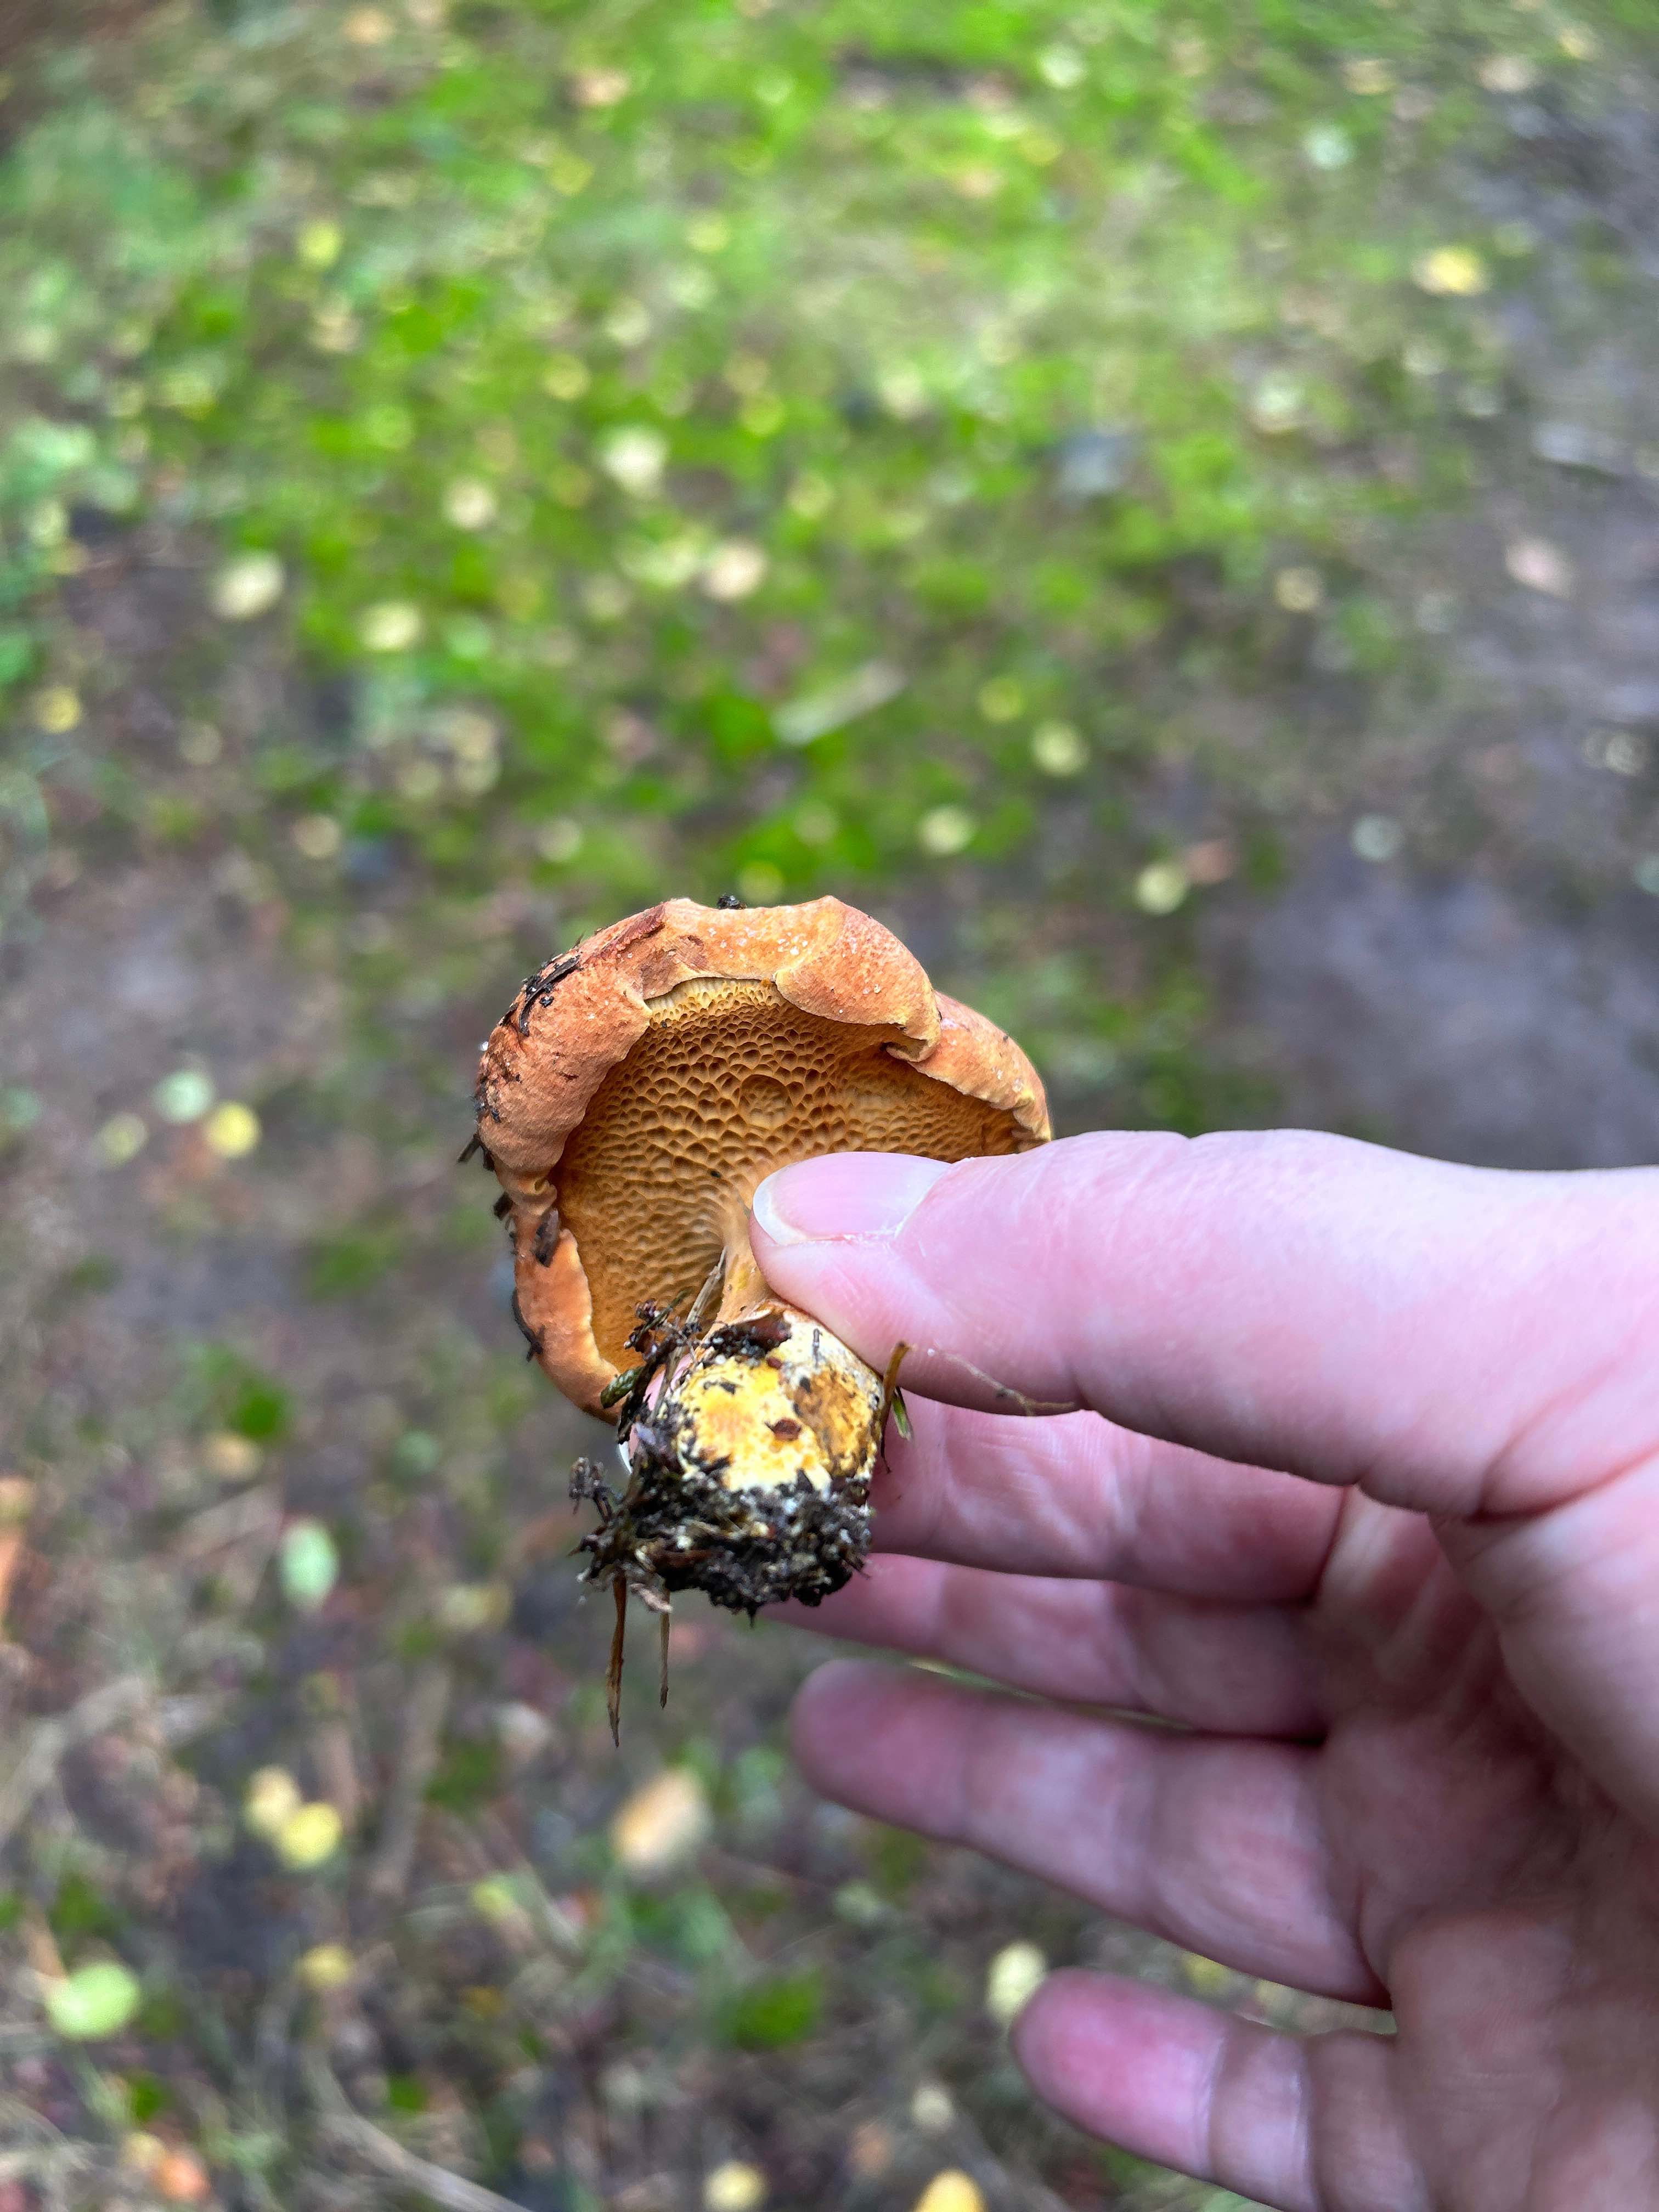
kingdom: Fungi
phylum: Basidiomycota
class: Agaricomycetes
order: Boletales
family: Boletaceae
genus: Chalciporus
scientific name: Chalciporus piperatus
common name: peberrørhat
